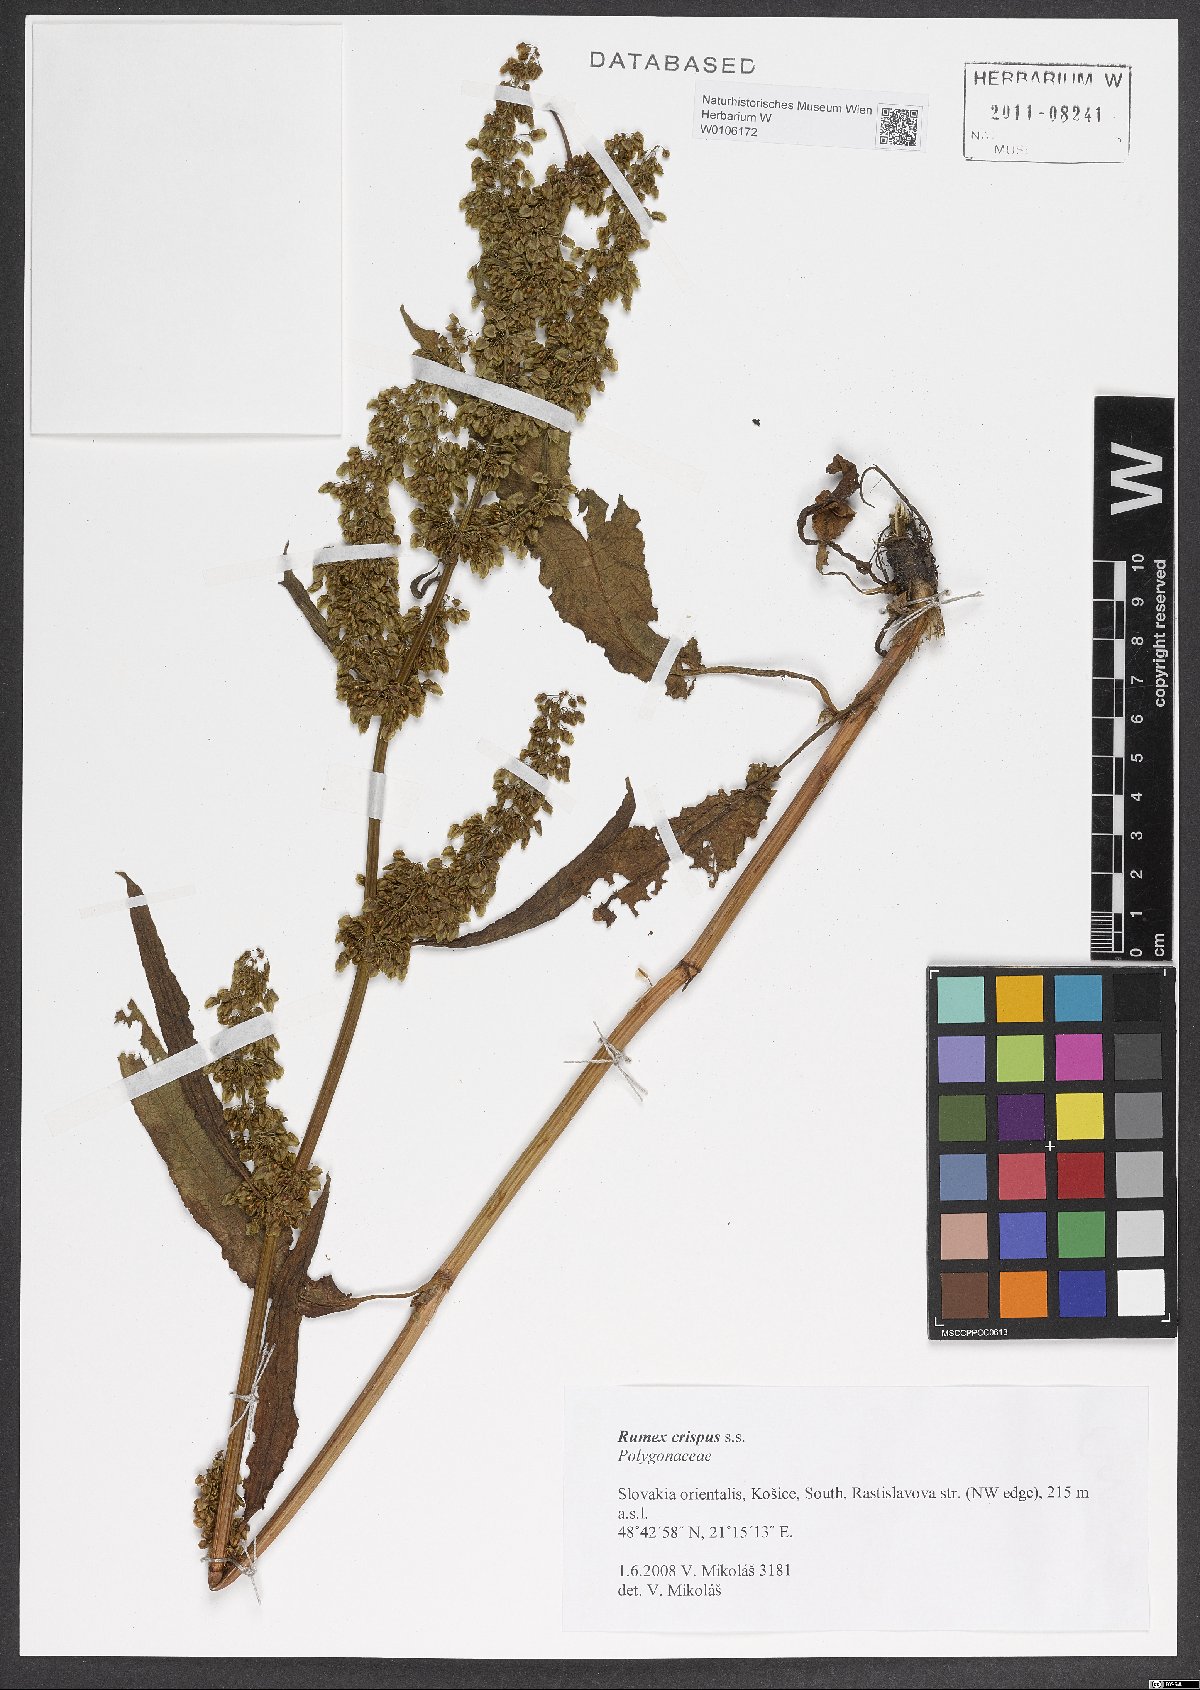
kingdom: Plantae
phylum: Tracheophyta
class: Magnoliopsida
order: Caryophyllales
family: Polygonaceae
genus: Rumex
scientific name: Rumex crispus
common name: Curled dock
